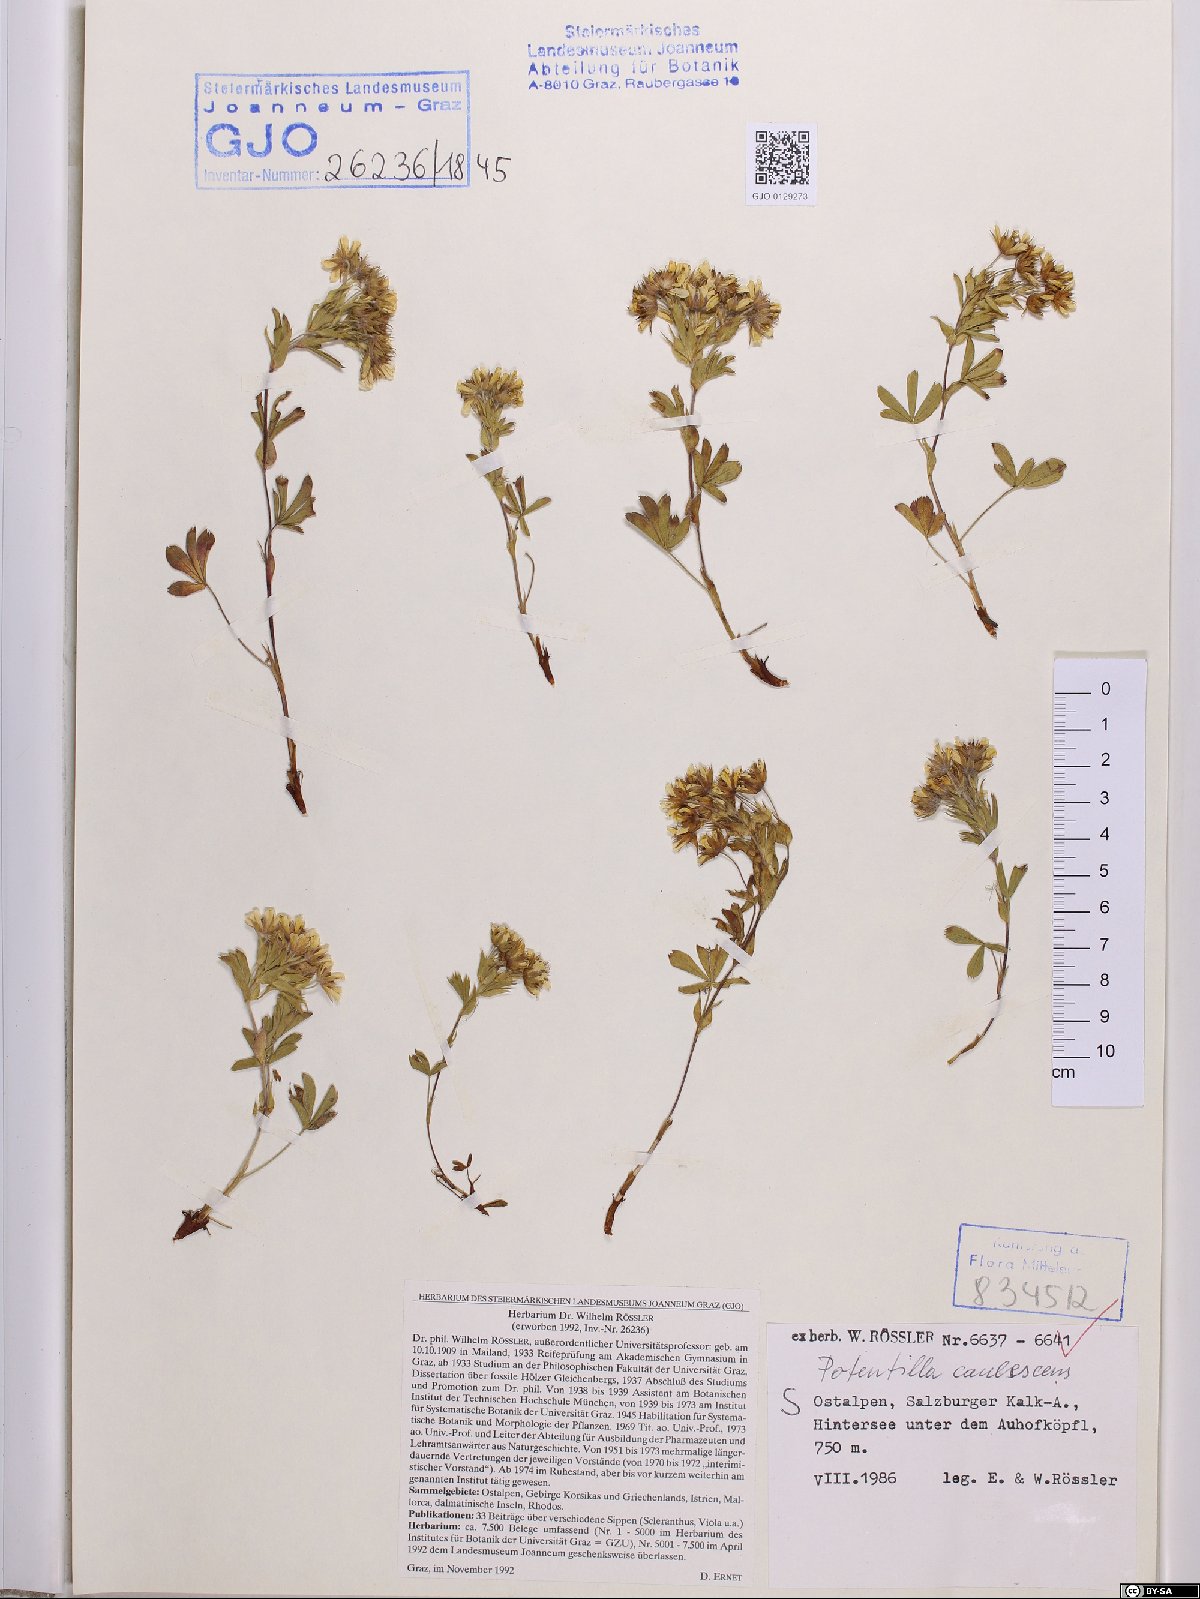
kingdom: Plantae
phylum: Tracheophyta
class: Magnoliopsida
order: Rosales
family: Rosaceae
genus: Potentilla
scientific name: Potentilla caulescens
